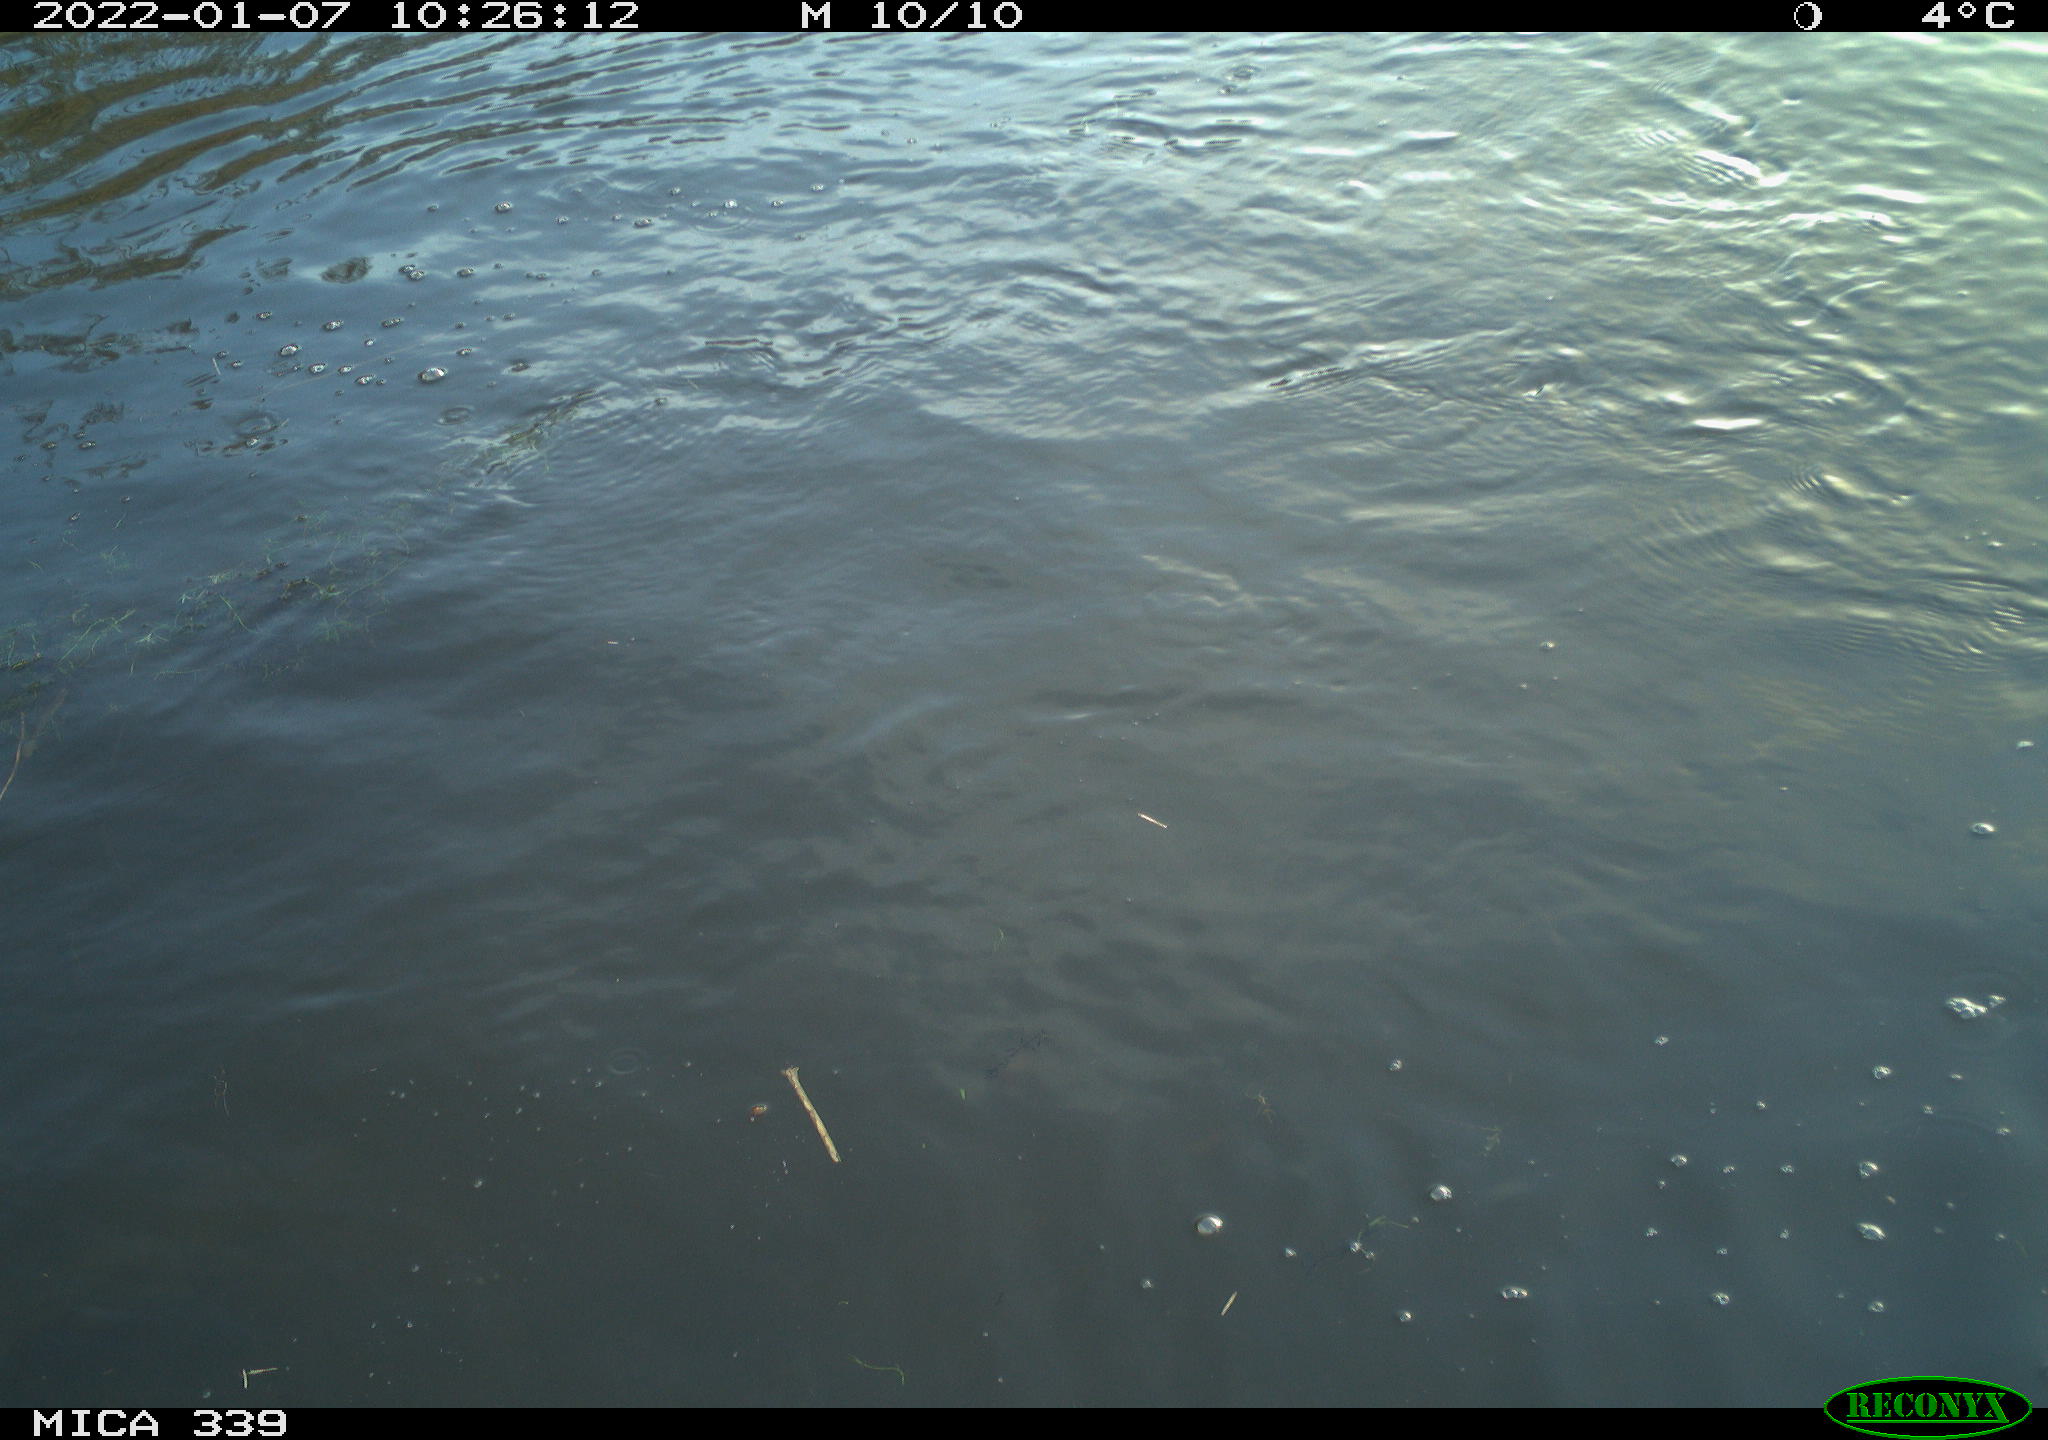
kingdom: Animalia
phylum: Chordata
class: Aves
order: Gruiformes
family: Rallidae
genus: Gallinula
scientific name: Gallinula chloropus
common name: Common moorhen
